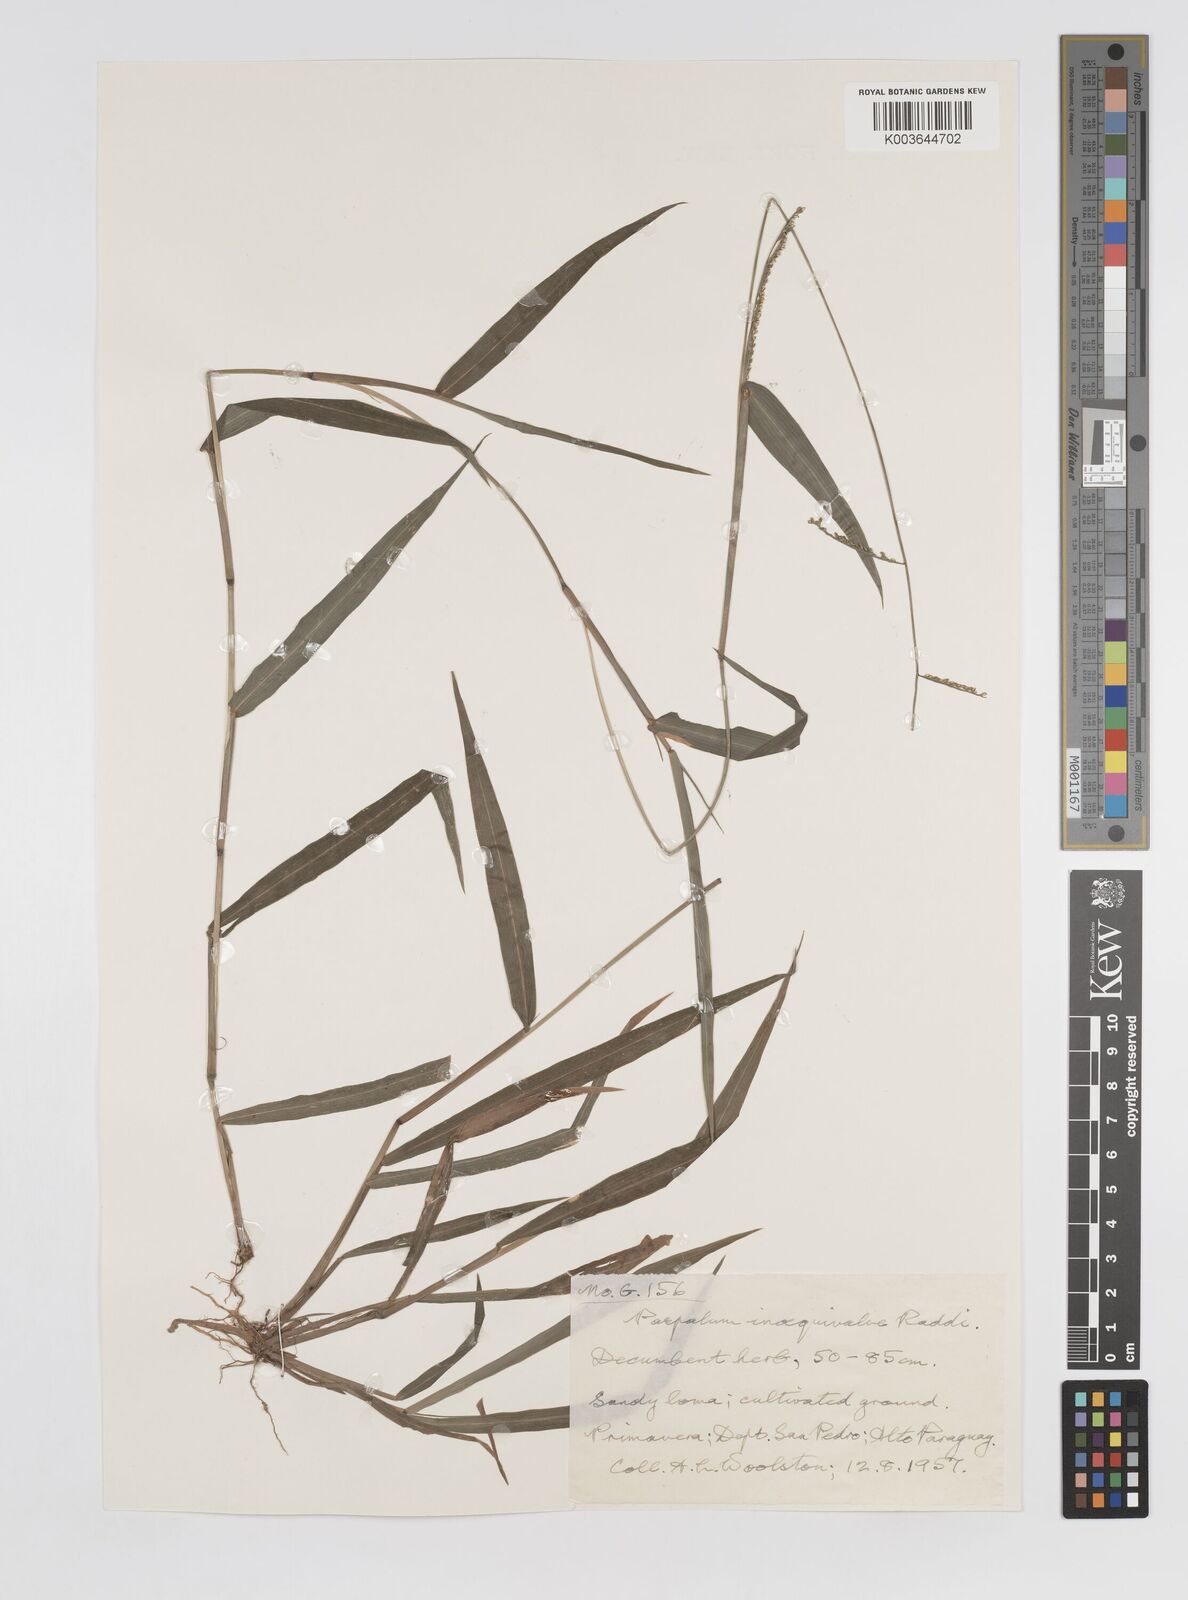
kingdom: Plantae
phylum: Tracheophyta
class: Liliopsida
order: Poales
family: Poaceae
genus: Paspalum
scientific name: Paspalum inaequivalve
